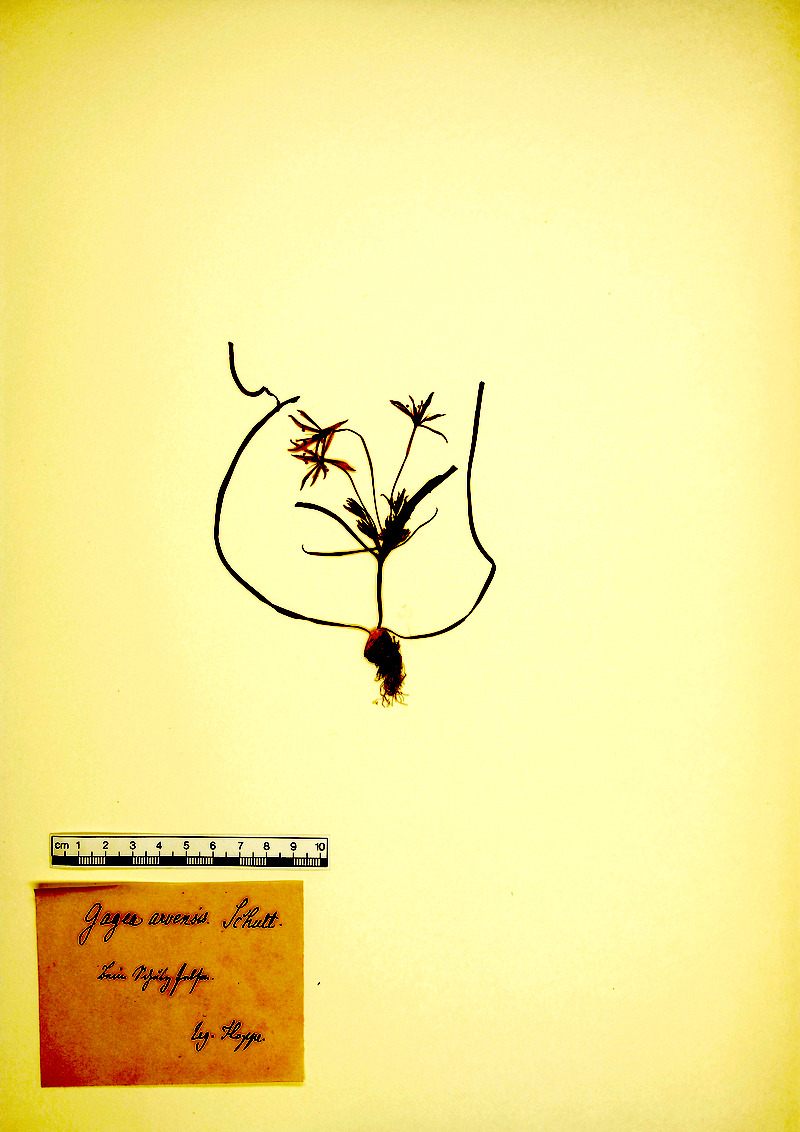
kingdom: Plantae
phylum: Tracheophyta
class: Liliopsida
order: Liliales
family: Liliaceae
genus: Gagea
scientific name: Gagea villosa
